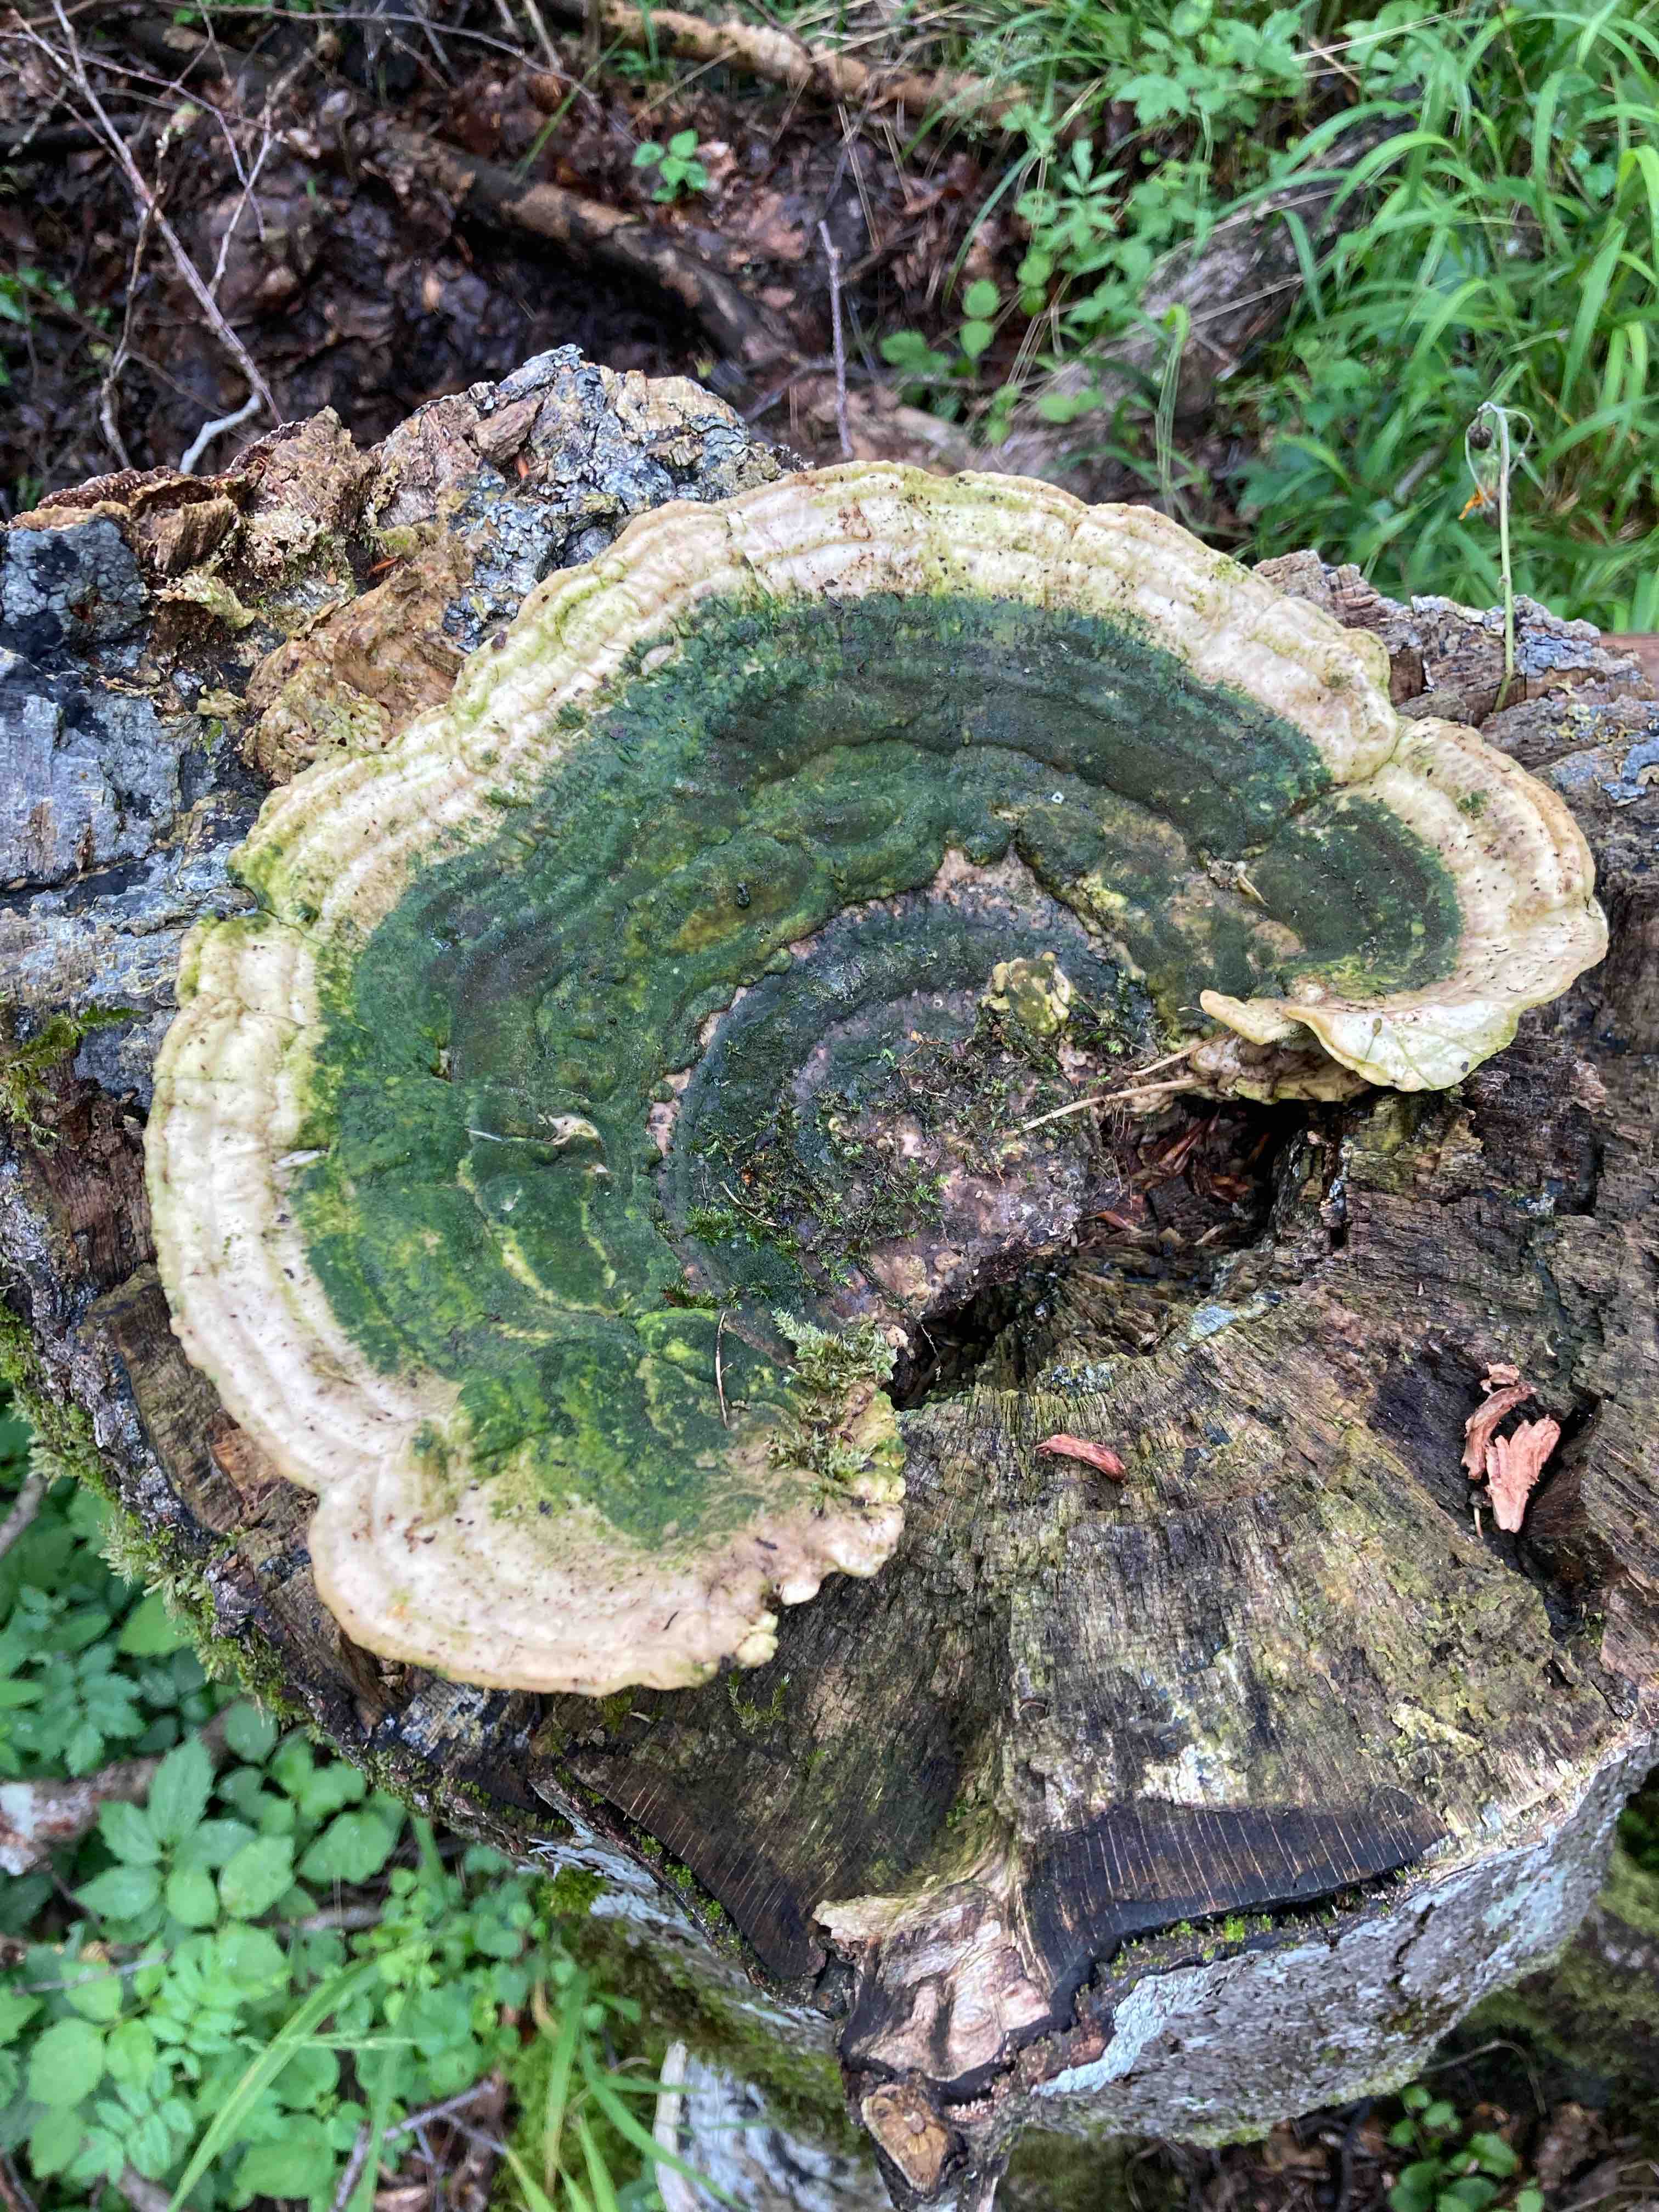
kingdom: Fungi
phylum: Basidiomycota
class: Agaricomycetes
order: Polyporales
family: Polyporaceae
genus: Trametes
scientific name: Trametes gibbosa
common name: puklet læderporesvamp
